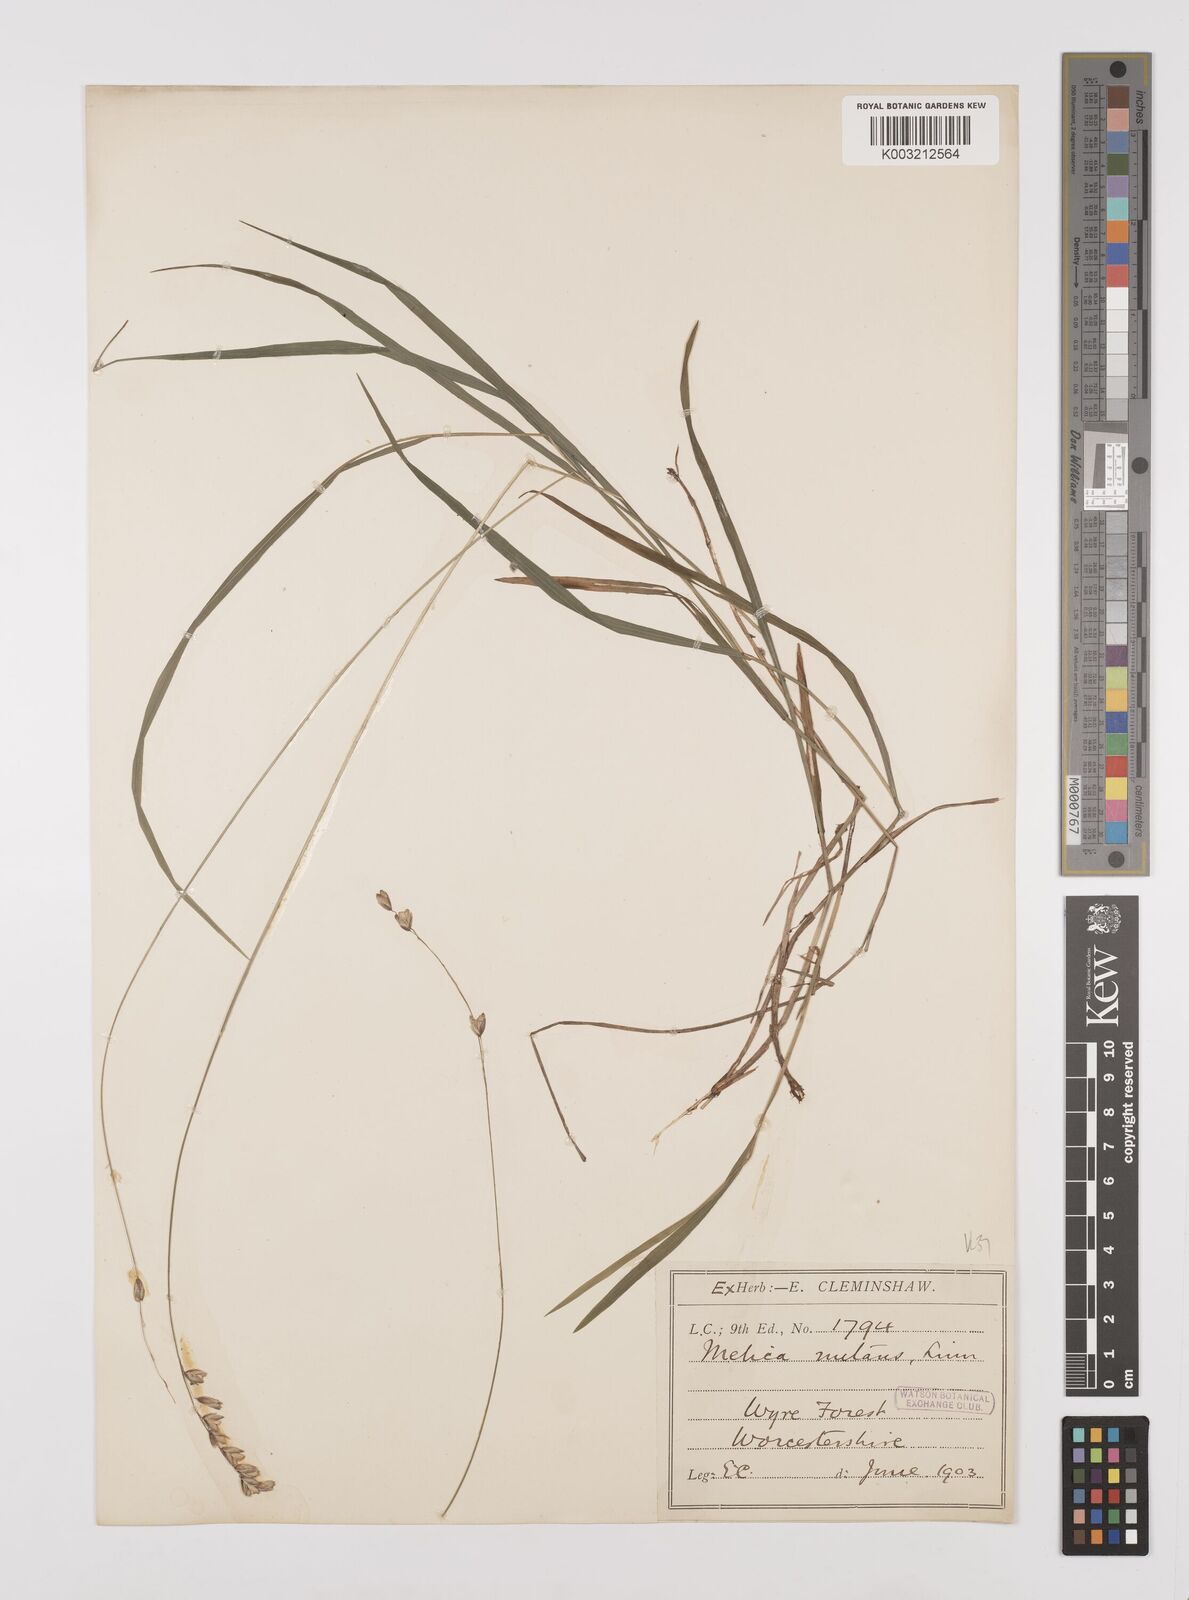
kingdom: Plantae
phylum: Tracheophyta
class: Liliopsida
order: Poales
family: Poaceae
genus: Melica
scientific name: Melica
